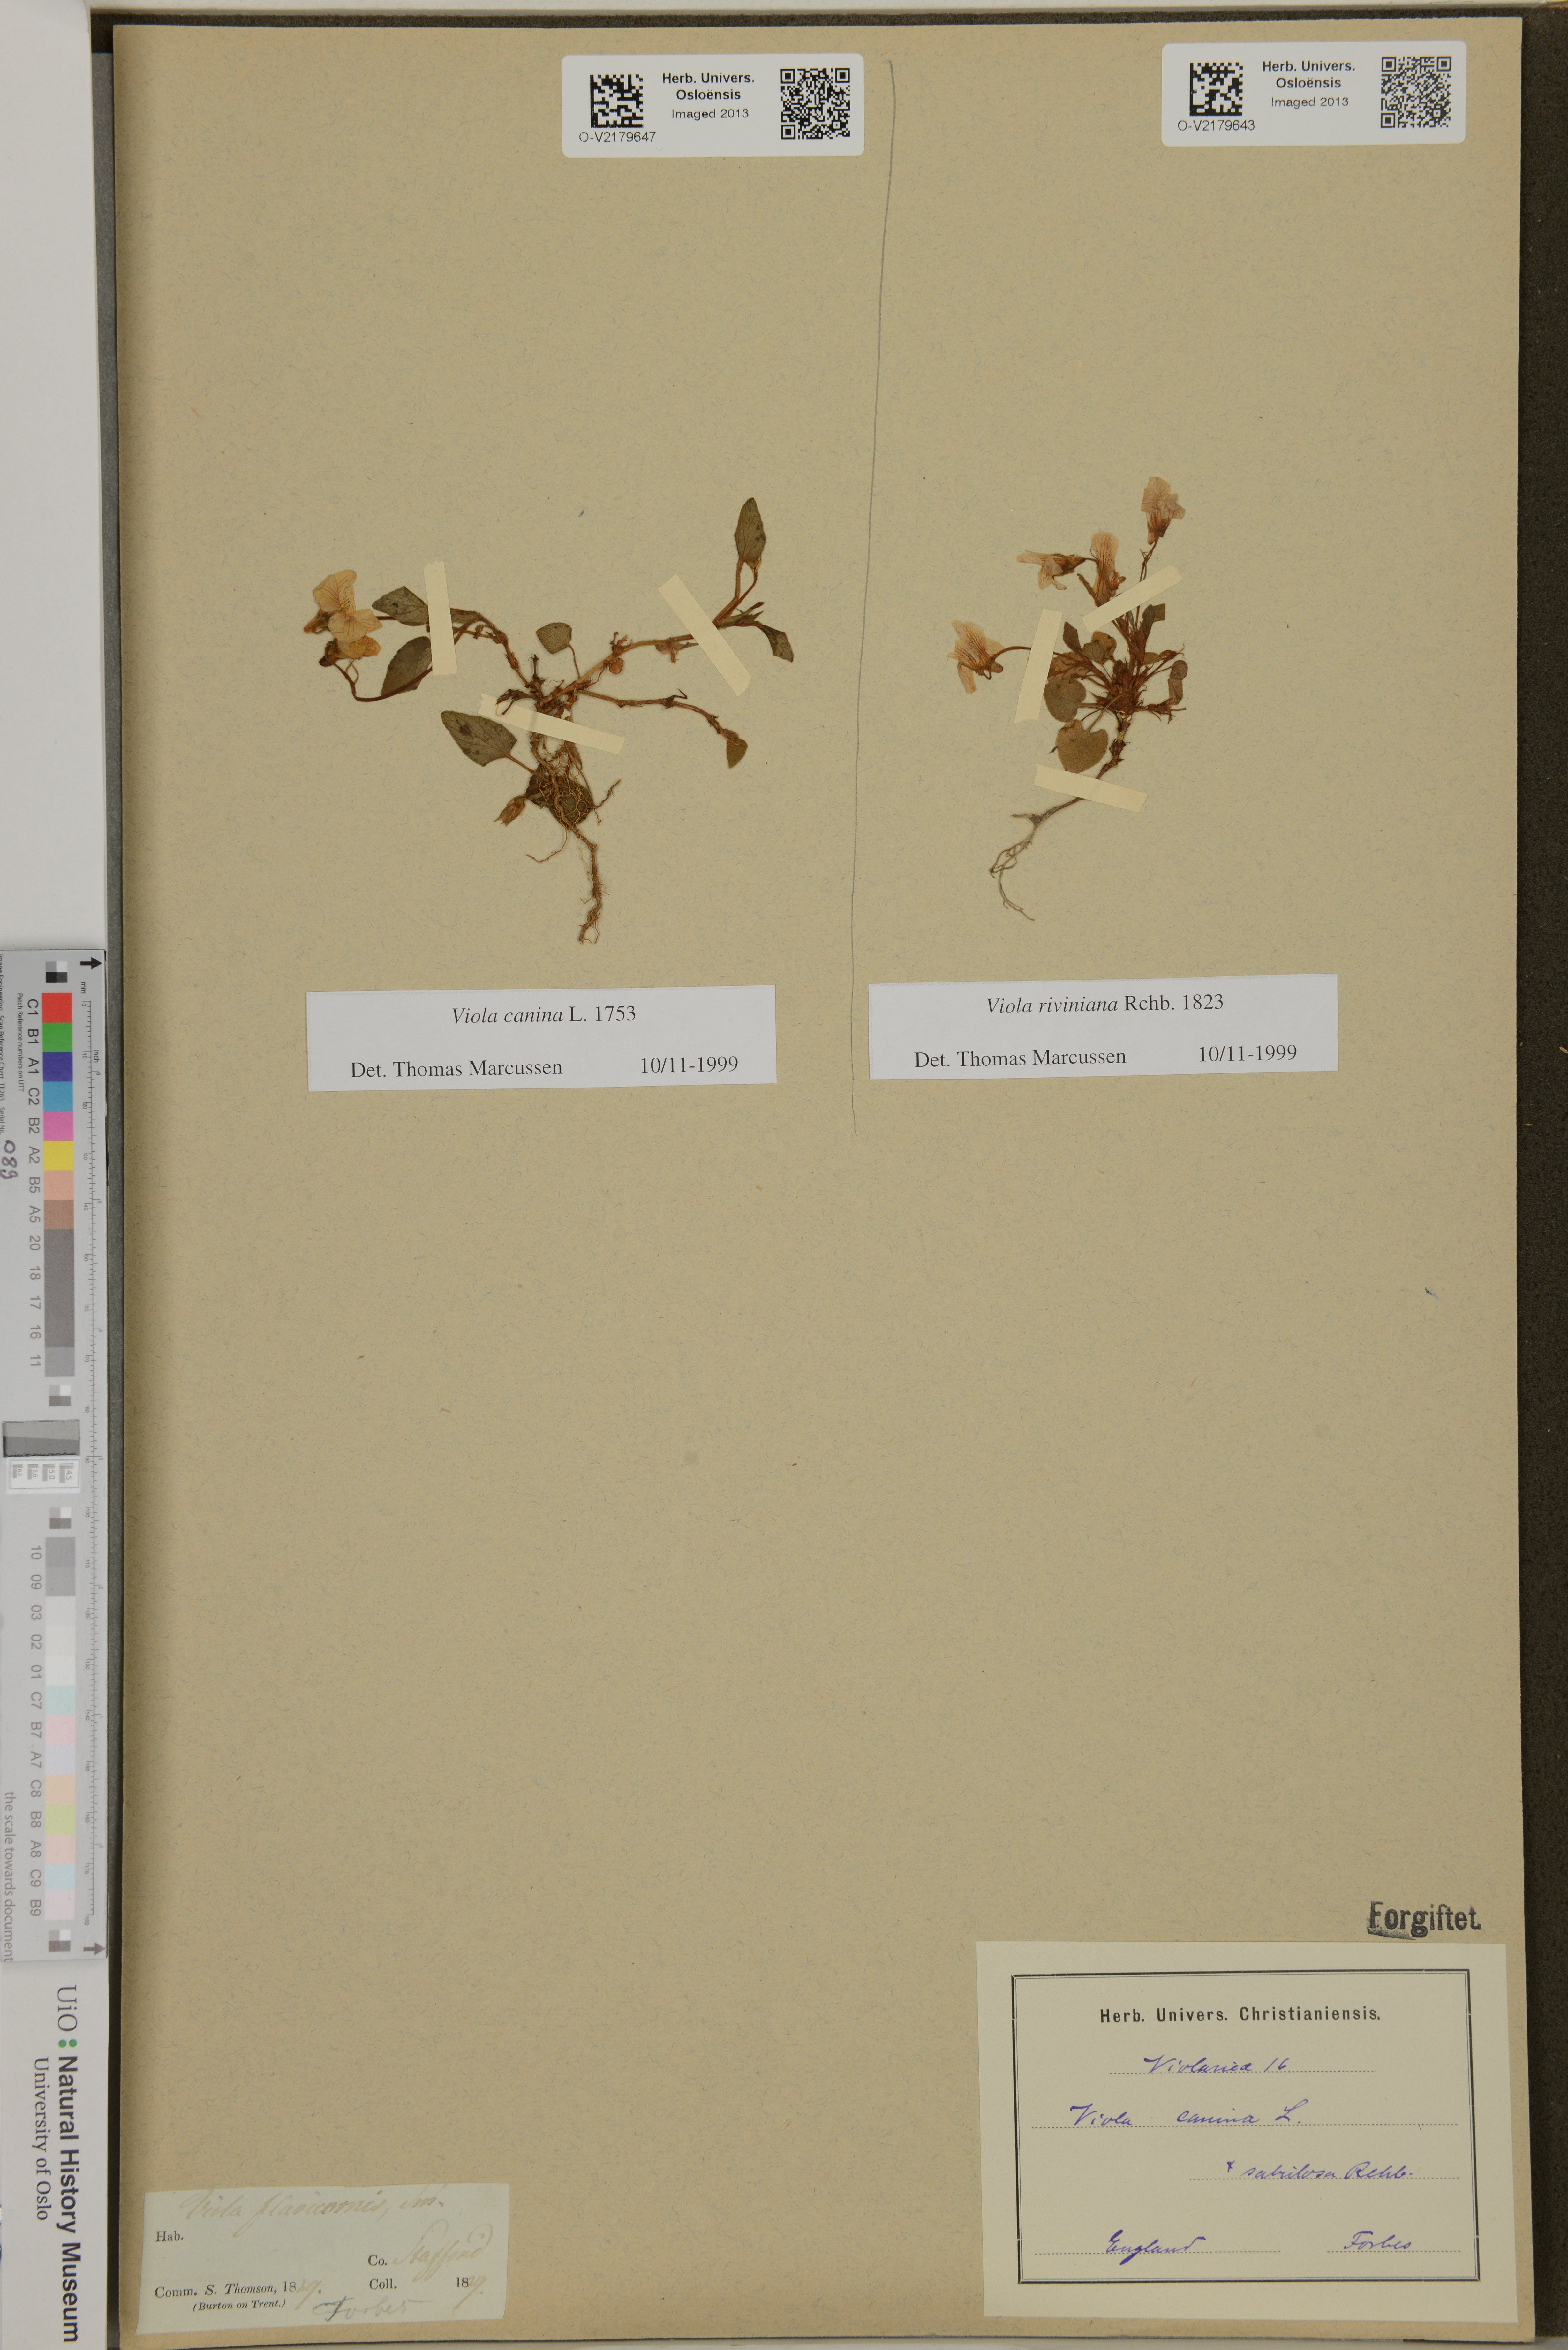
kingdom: Plantae
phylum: Tracheophyta
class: Magnoliopsida
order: Malpighiales
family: Violaceae
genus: Viola
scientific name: Viola canina
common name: Heath dog-violet
